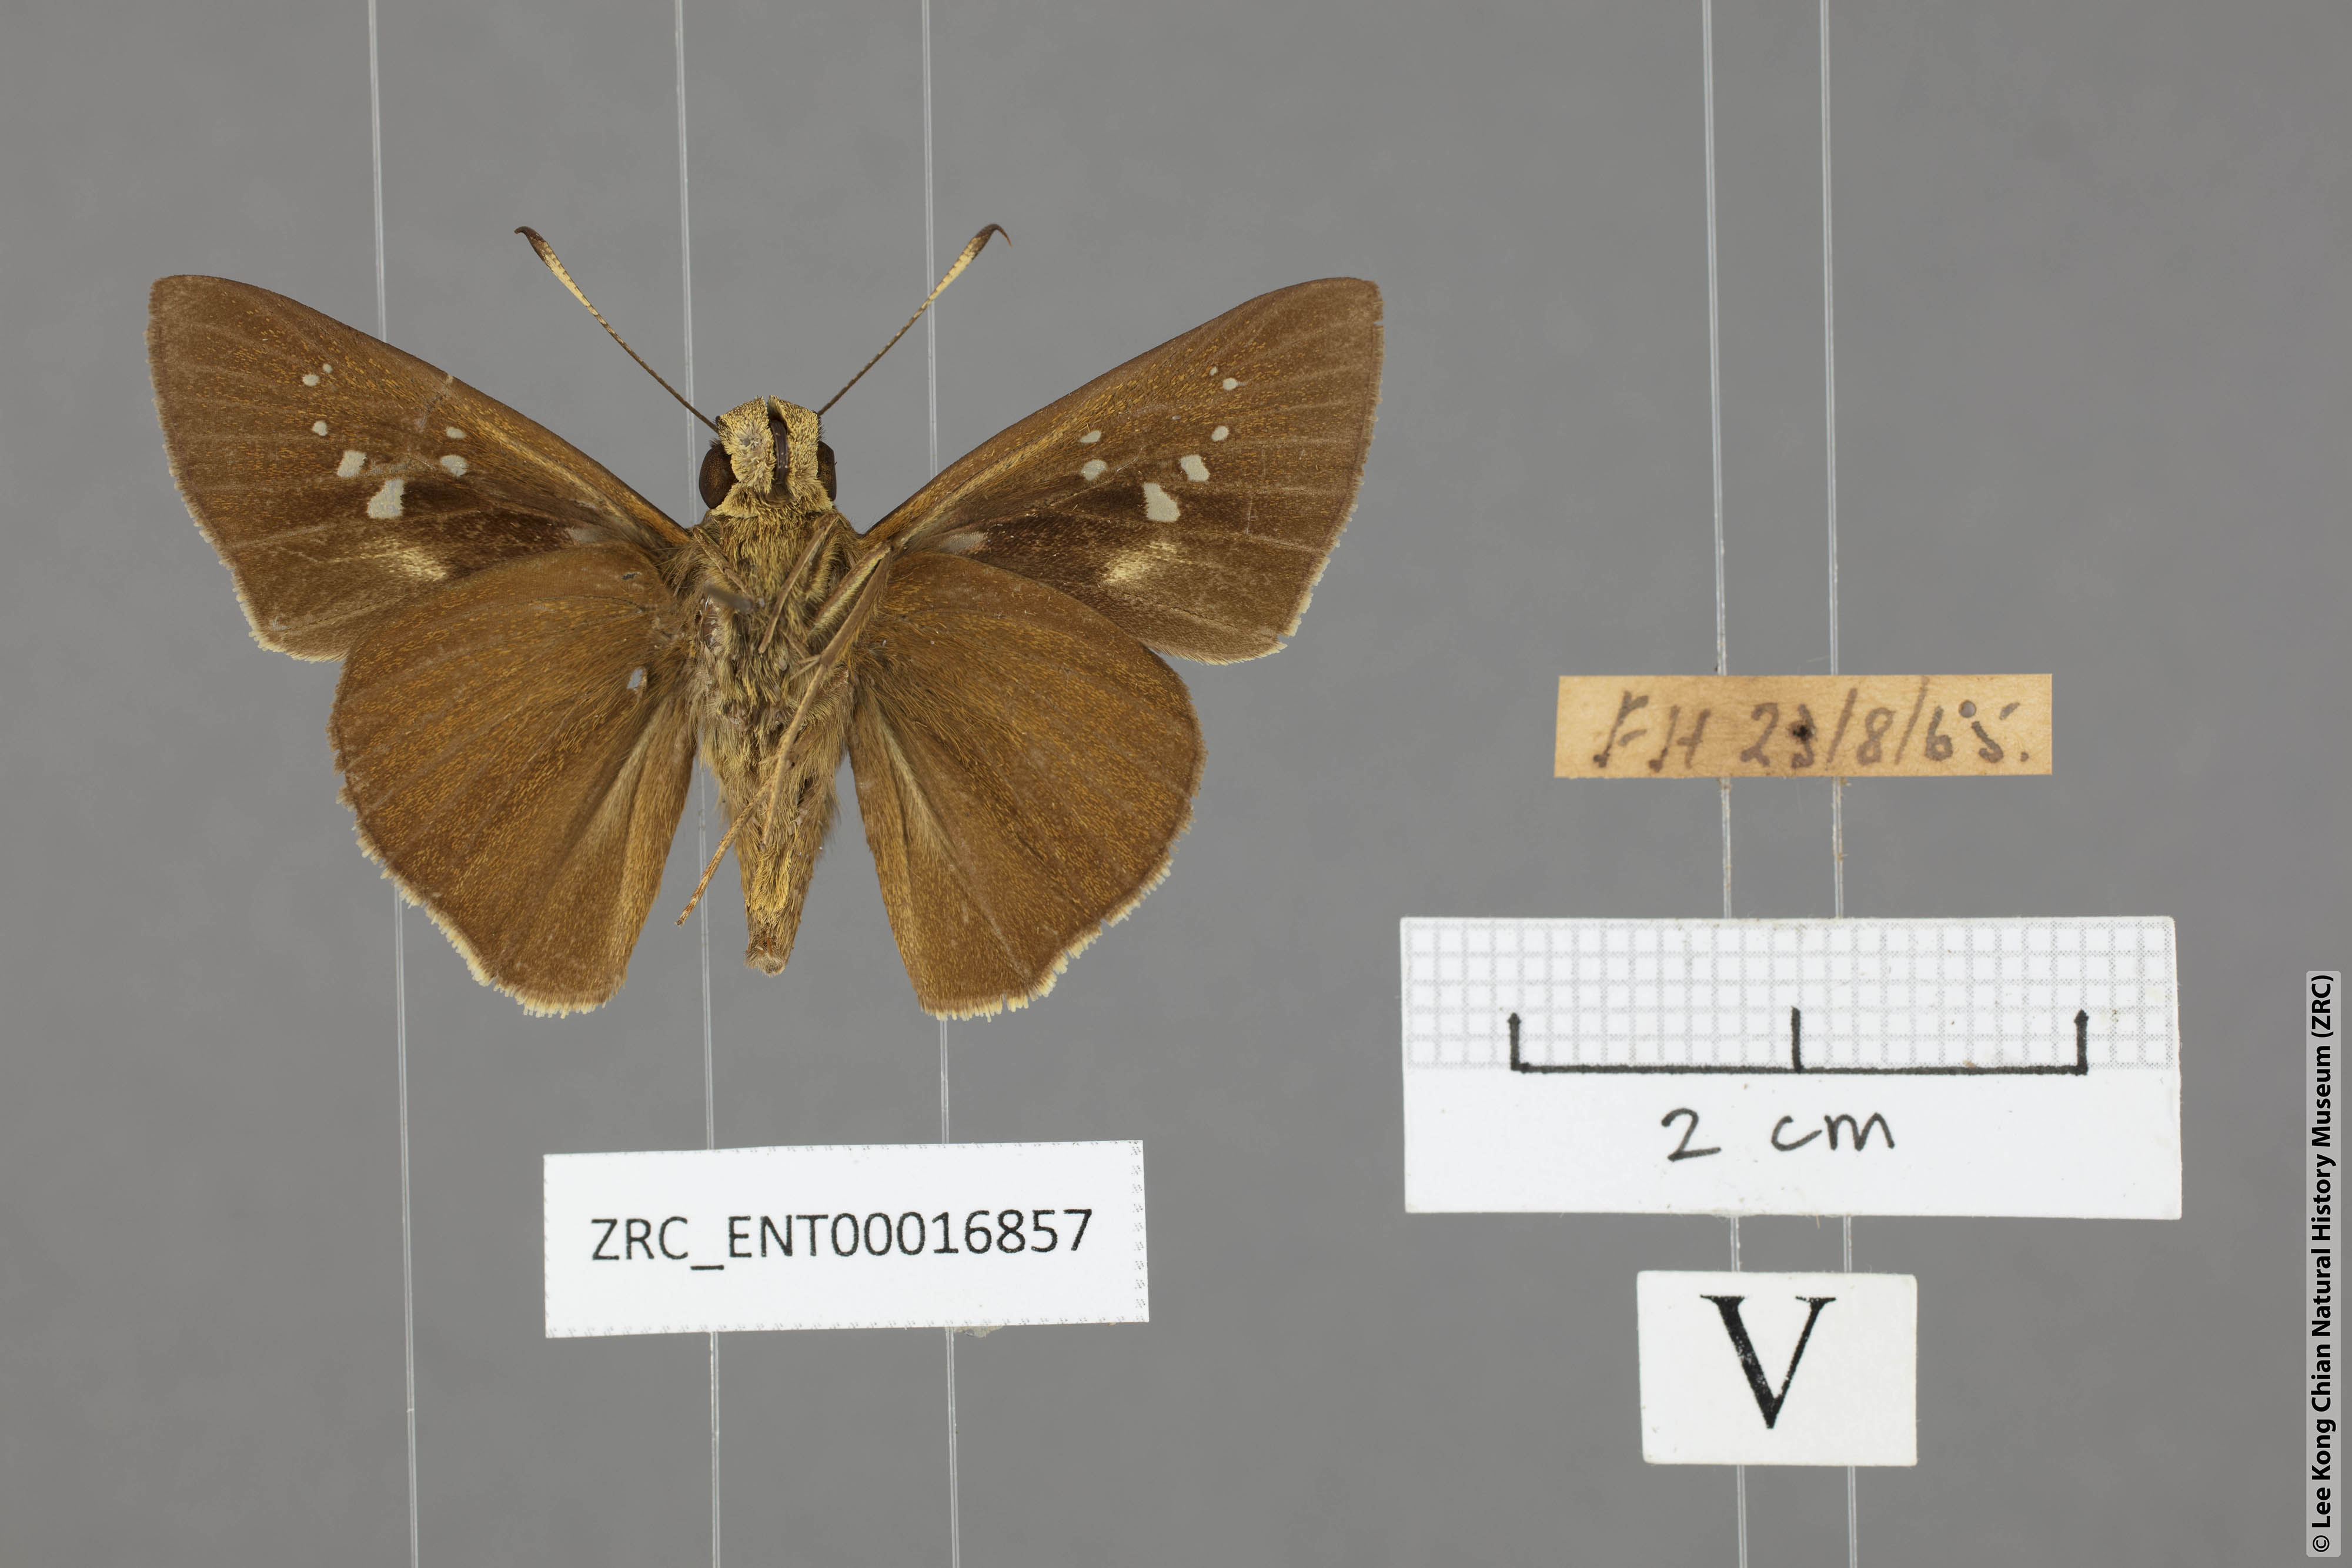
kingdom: Animalia
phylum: Arthropoda
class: Insecta
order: Lepidoptera
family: Hesperiidae
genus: Caltoris
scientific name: Caltoris sirius
